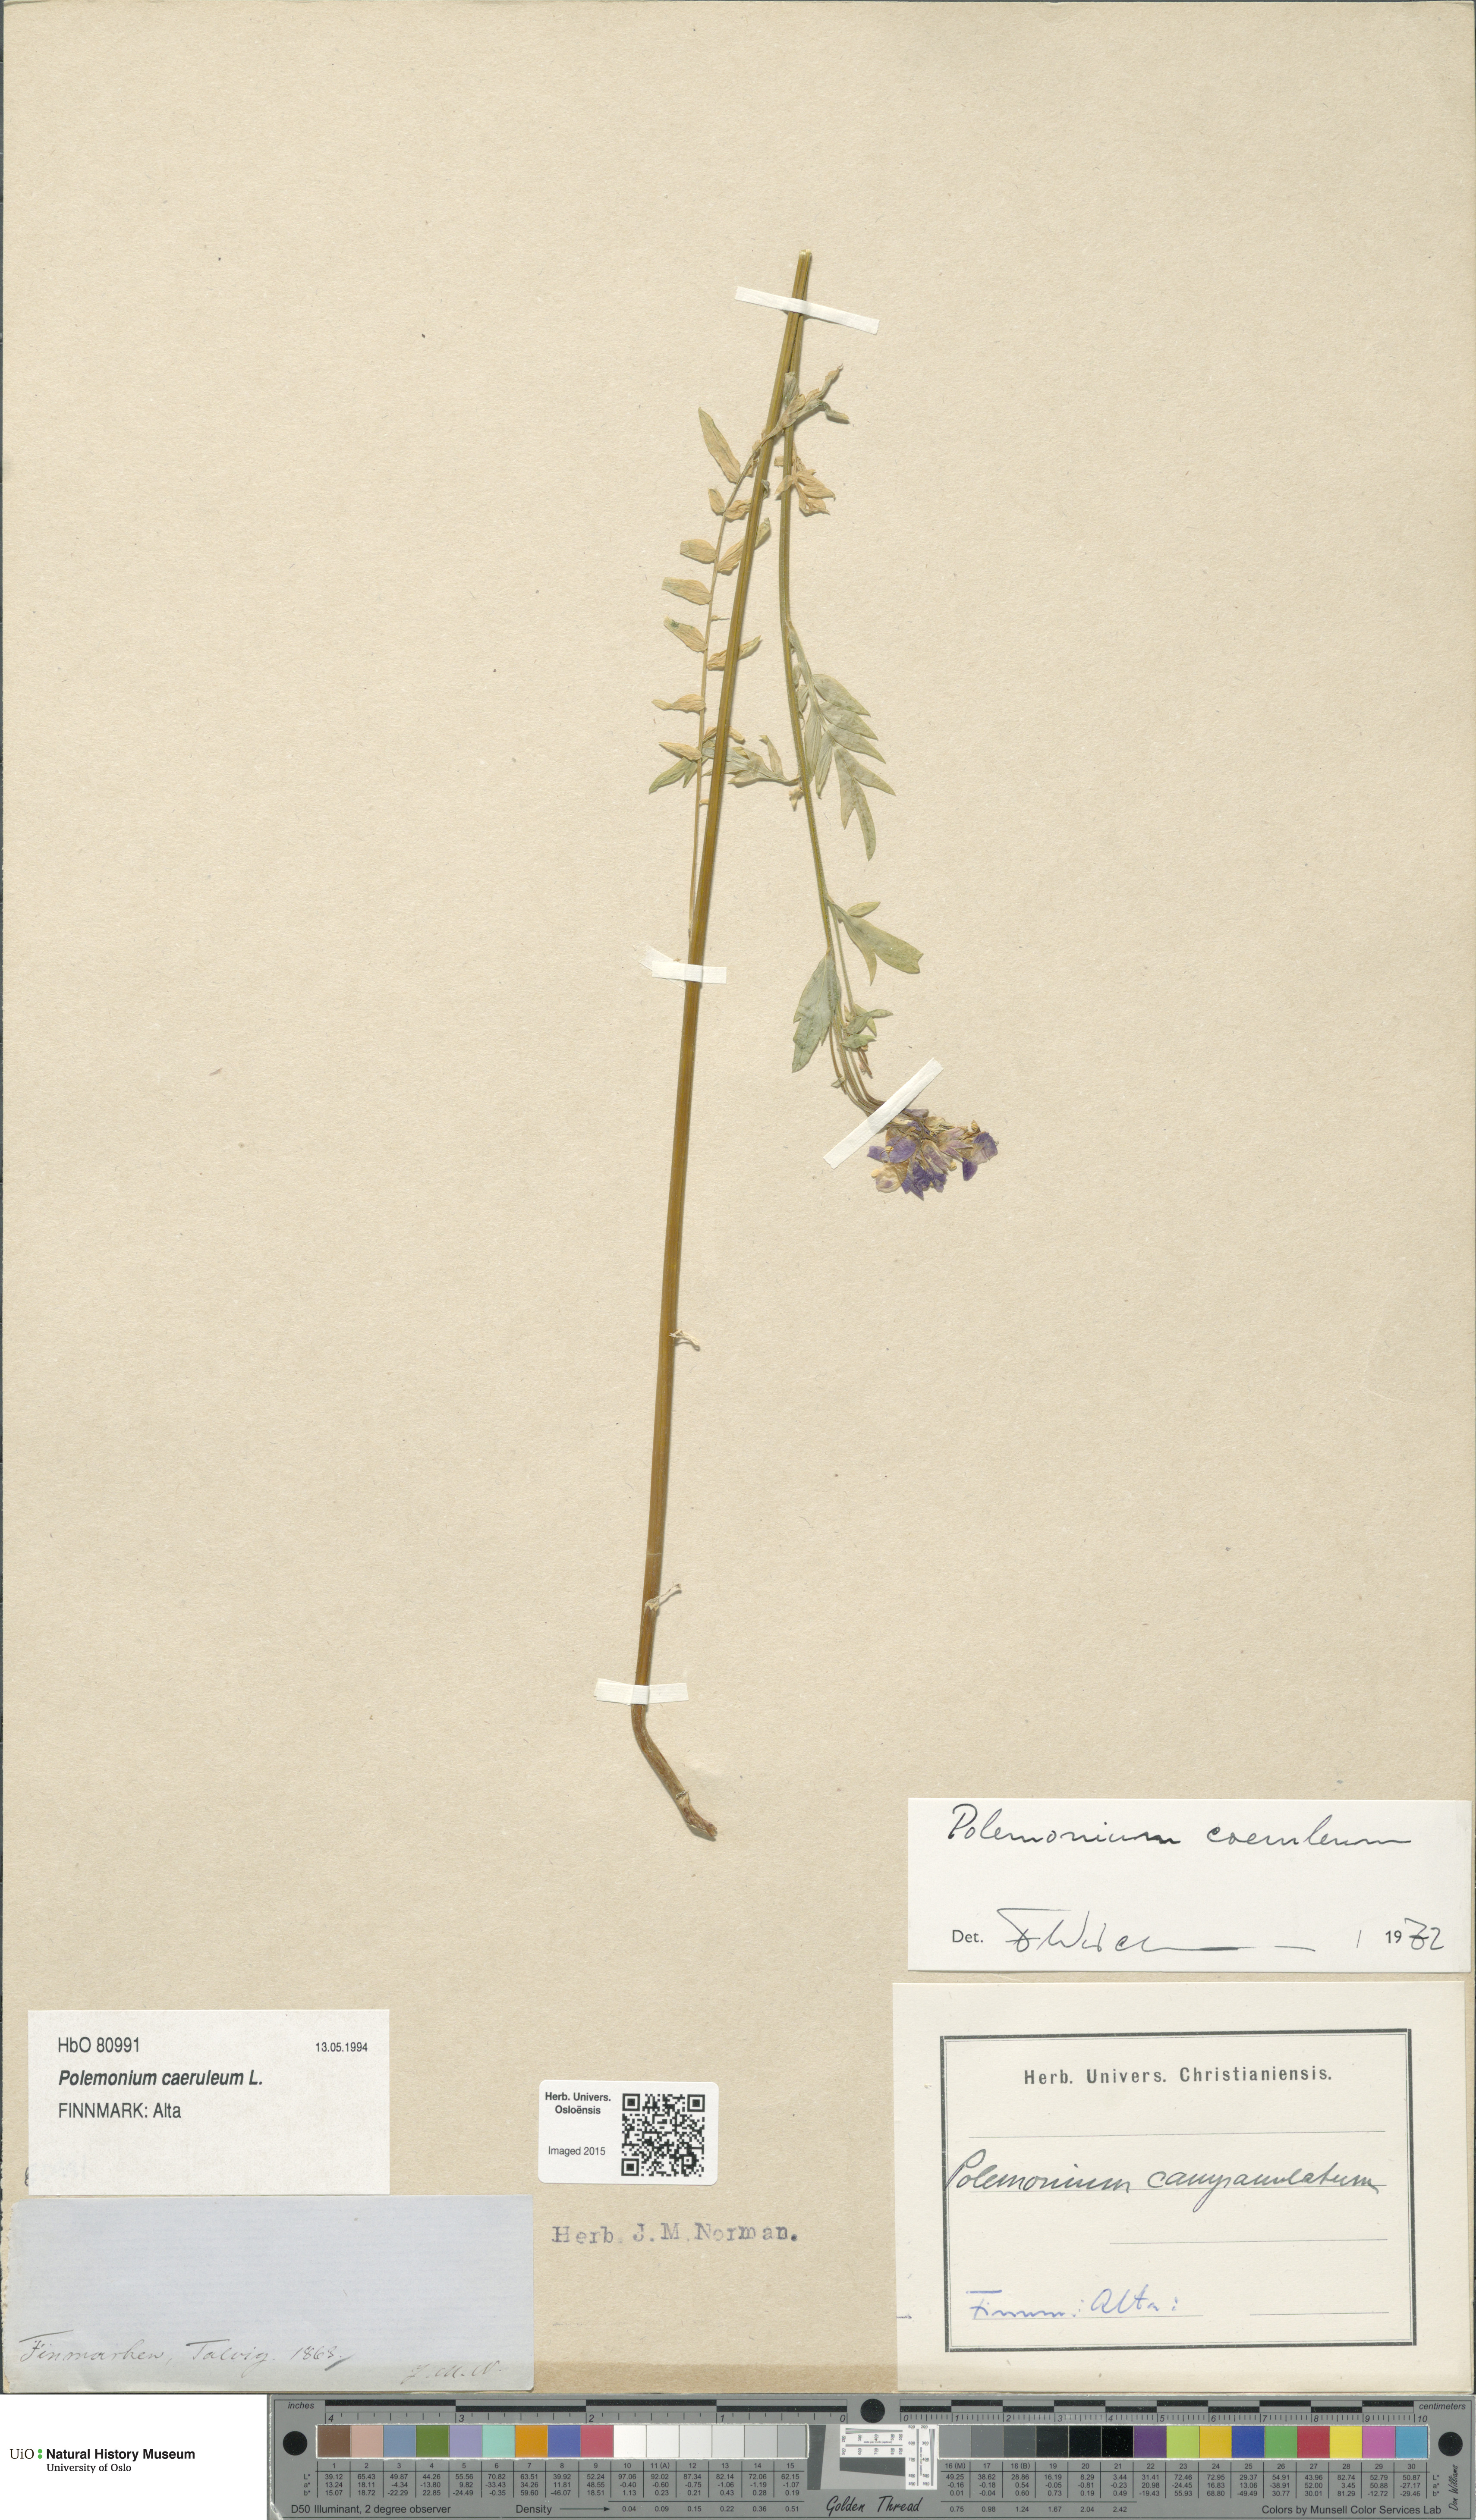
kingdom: Plantae
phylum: Tracheophyta
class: Magnoliopsida
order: Ericales
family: Polemoniaceae
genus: Polemonium
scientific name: Polemonium caeruleum
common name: Jacob's-ladder
